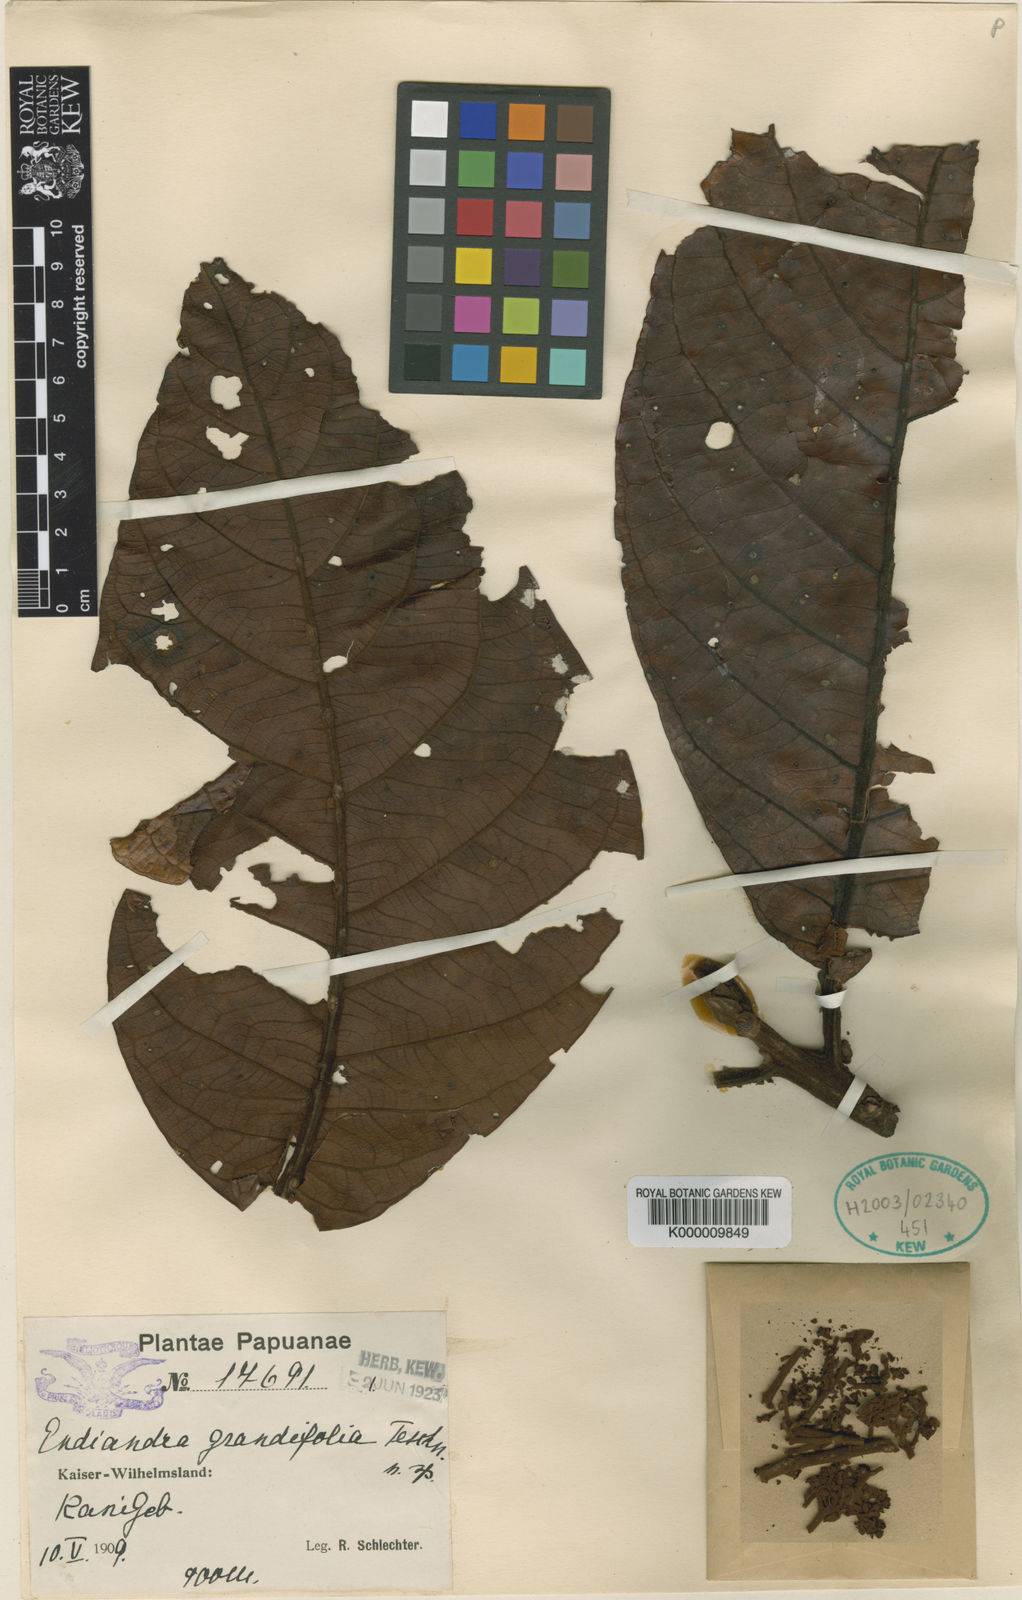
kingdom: Plantae
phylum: Tracheophyta
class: Magnoliopsida
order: Laurales
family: Lauraceae
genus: Endiandra
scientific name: Endiandra grandifolia
